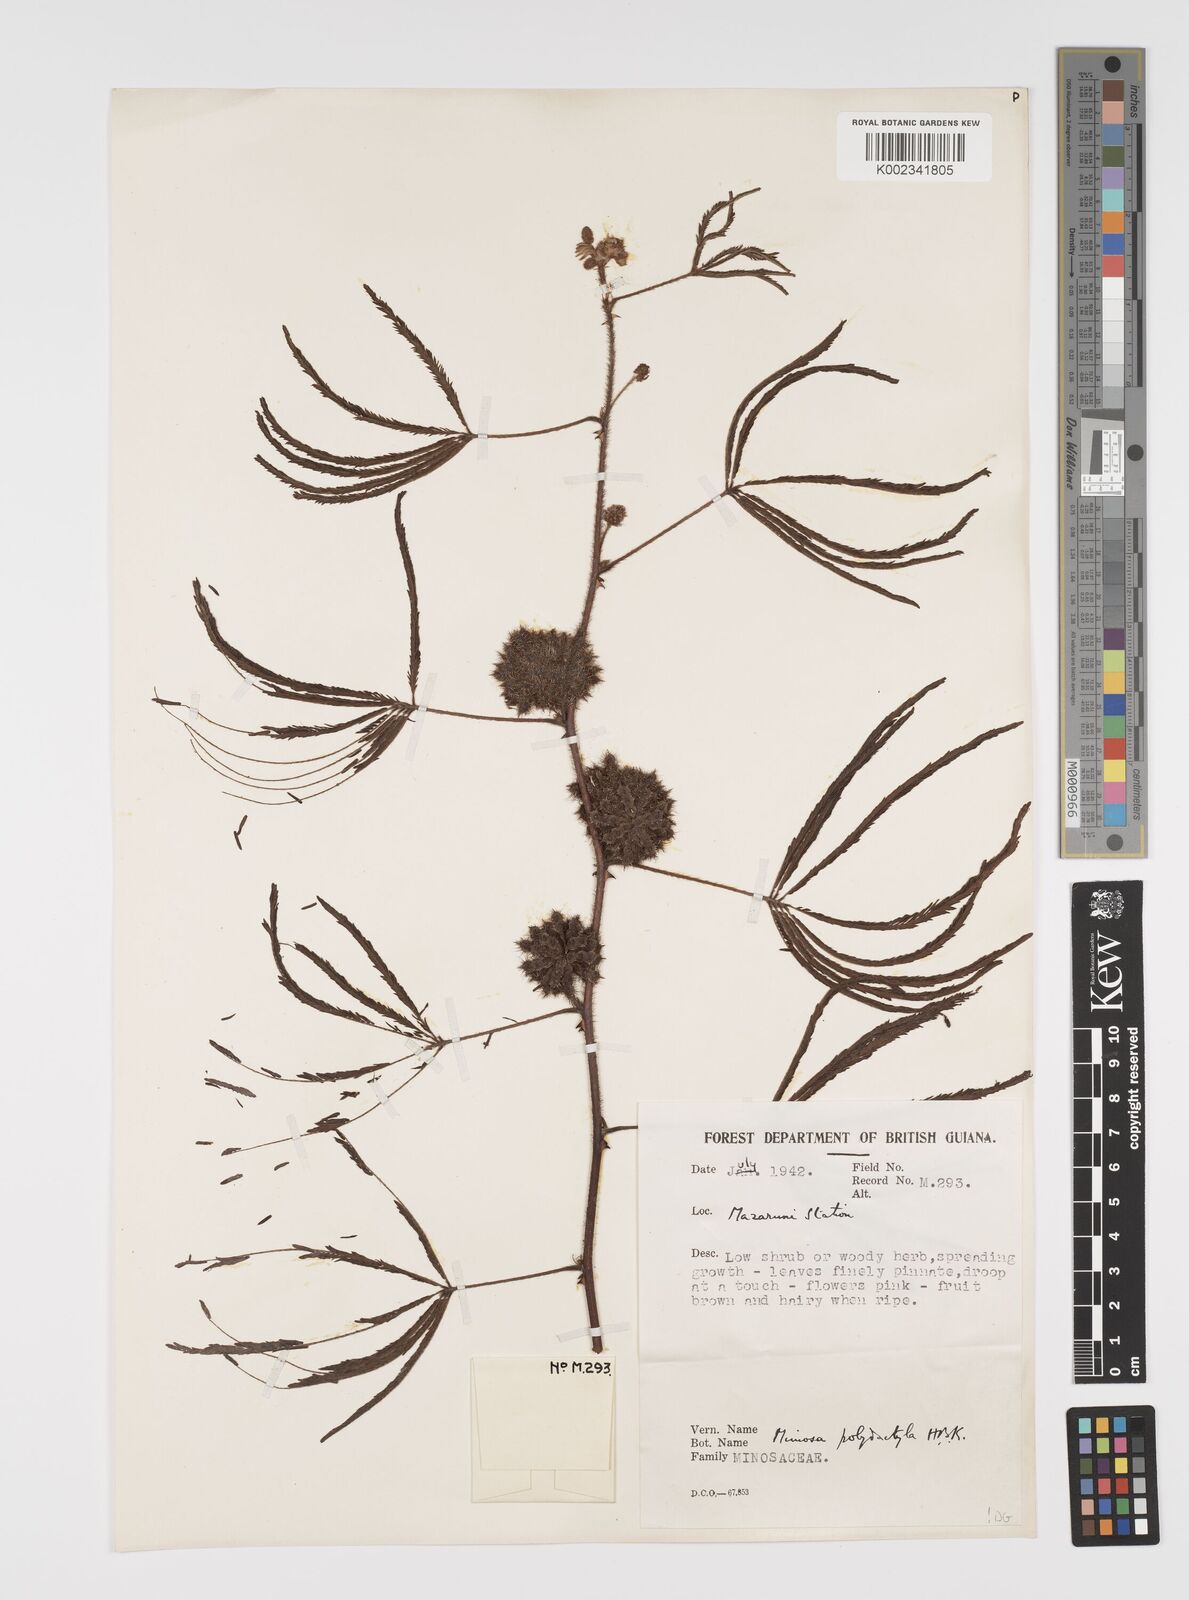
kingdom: Plantae
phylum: Tracheophyta
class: Magnoliopsida
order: Fabales
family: Fabaceae
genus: Mimosa
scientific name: Mimosa polydactyla
